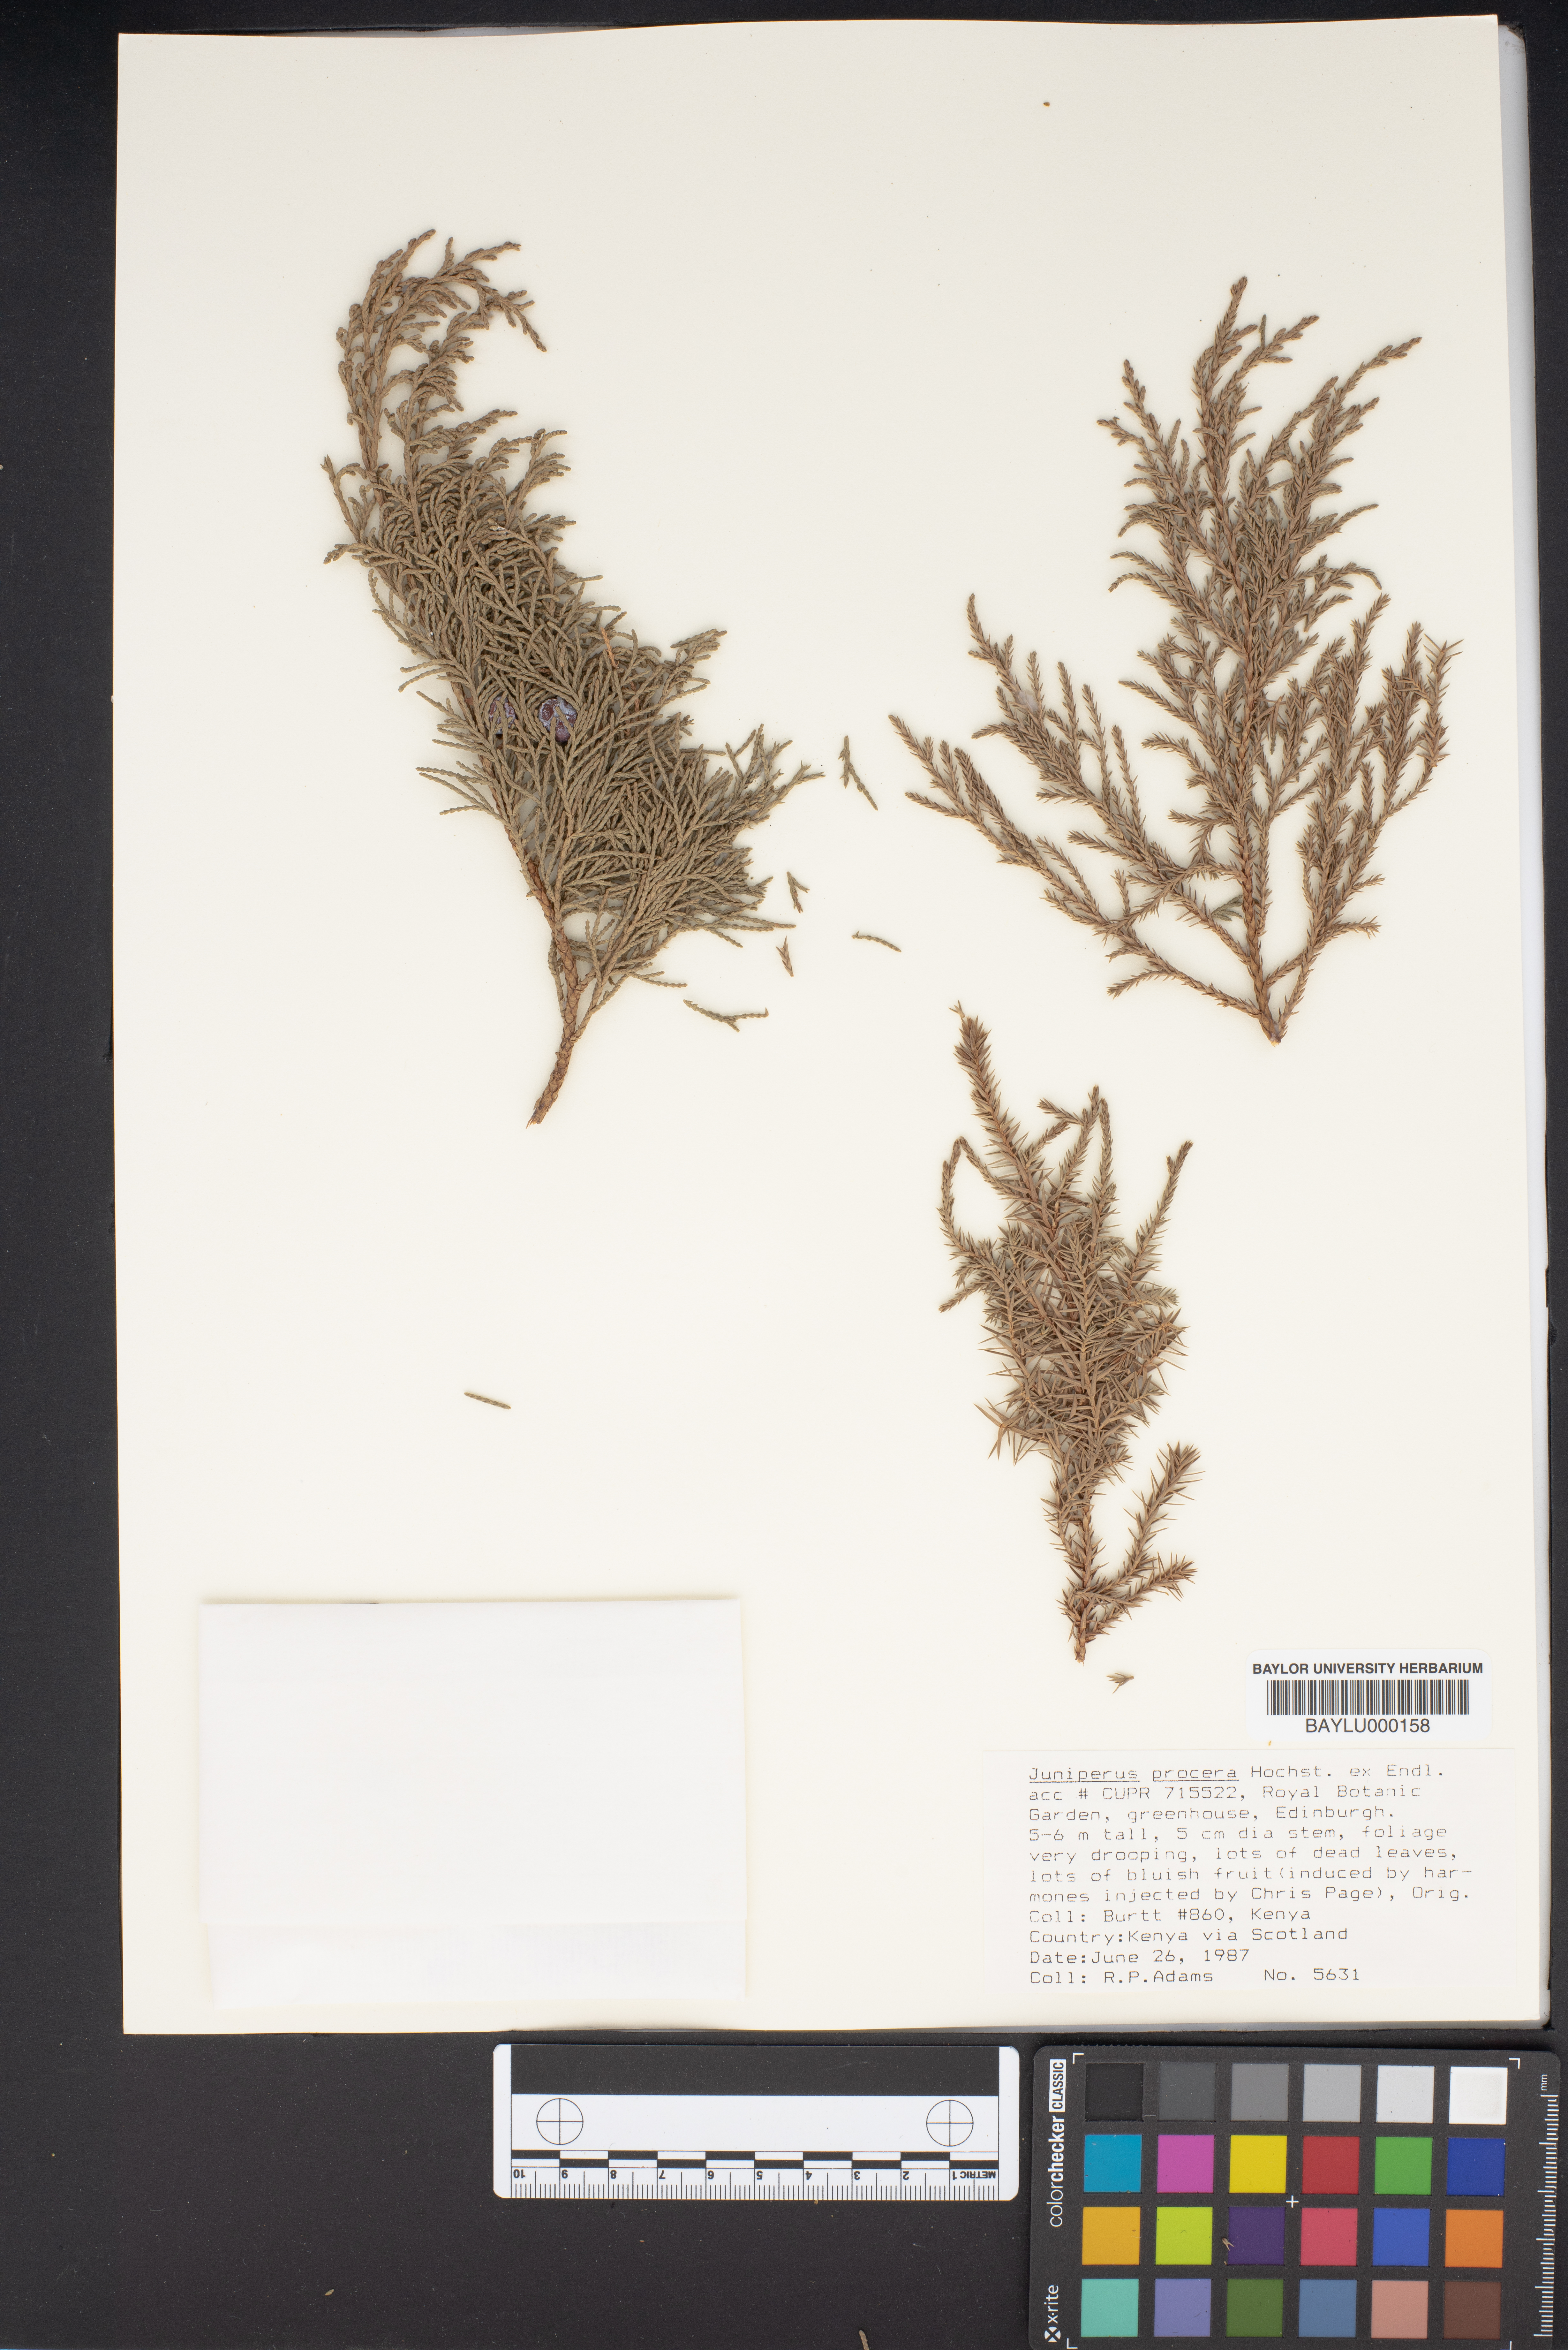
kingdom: Plantae
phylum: Tracheophyta
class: Pinopsida
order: Pinales
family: Cupressaceae
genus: Juniperus
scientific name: Juniperus procera
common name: African juniper
